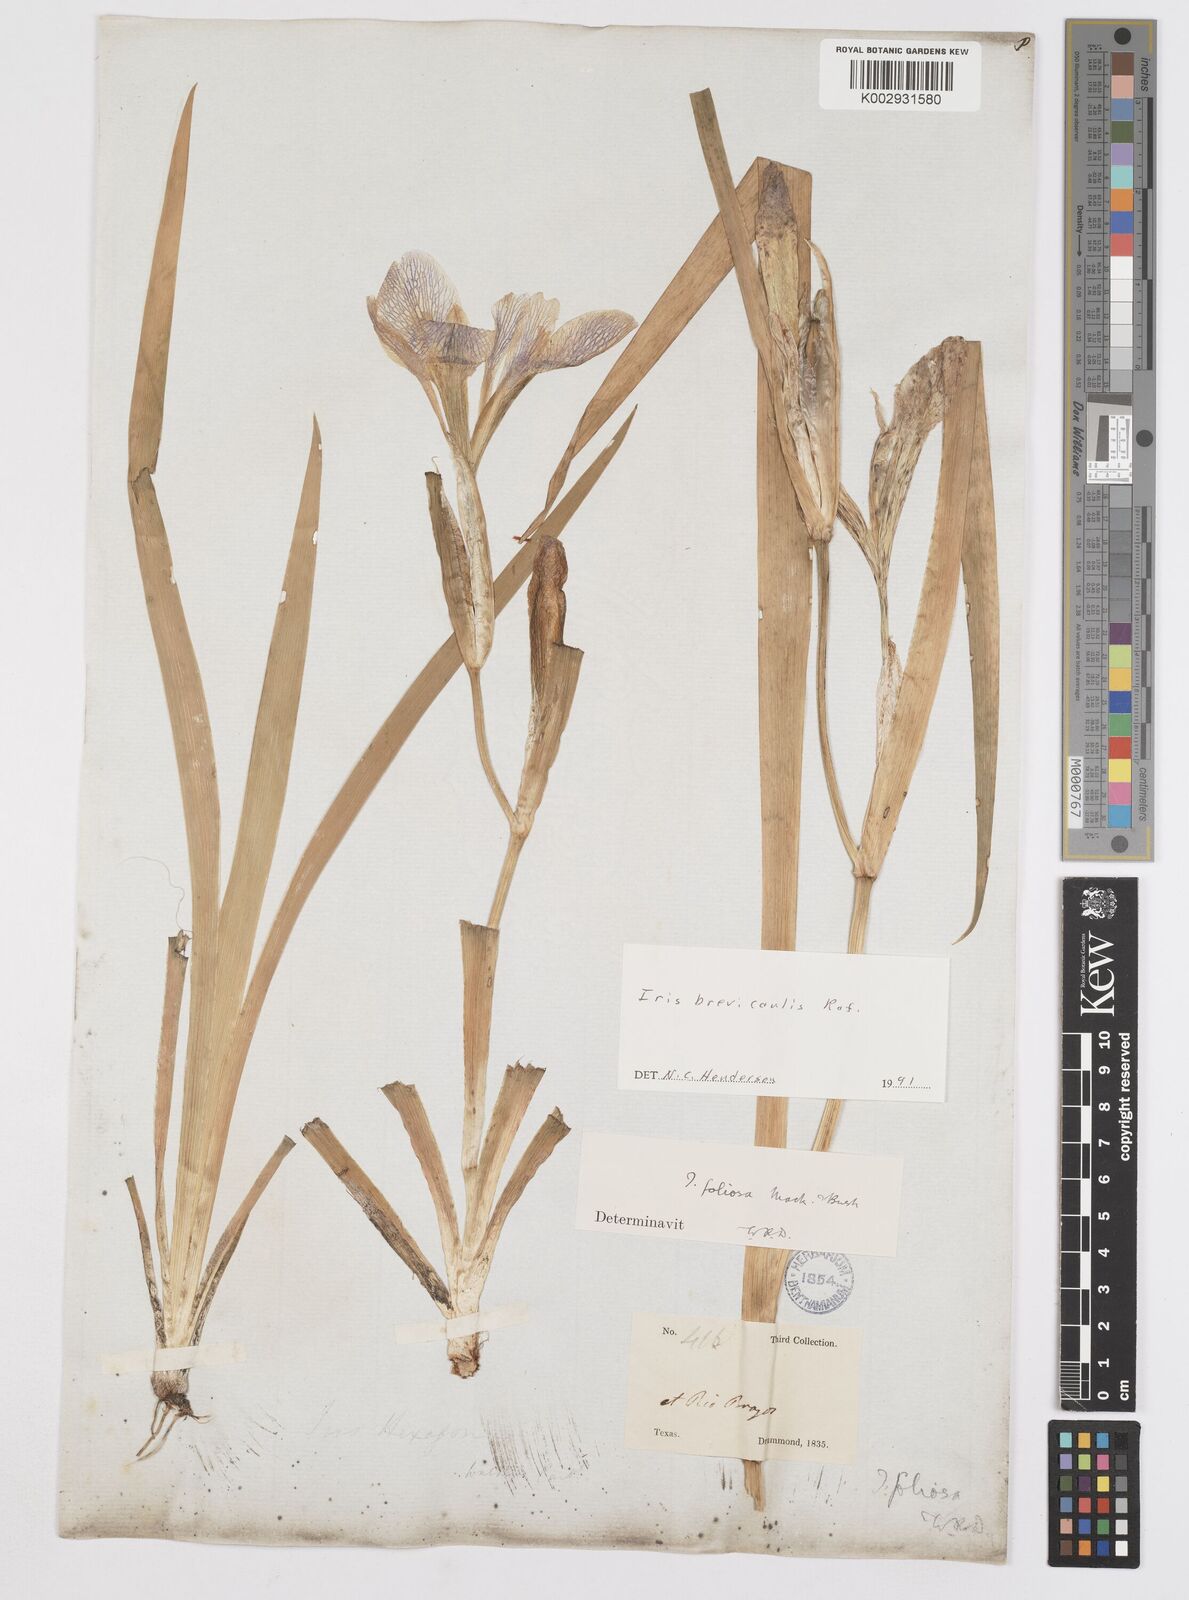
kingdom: Plantae
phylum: Tracheophyta
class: Liliopsida
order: Asparagales
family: Iridaceae
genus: Iris
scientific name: Iris brevicaulis
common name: Zigzag iris
